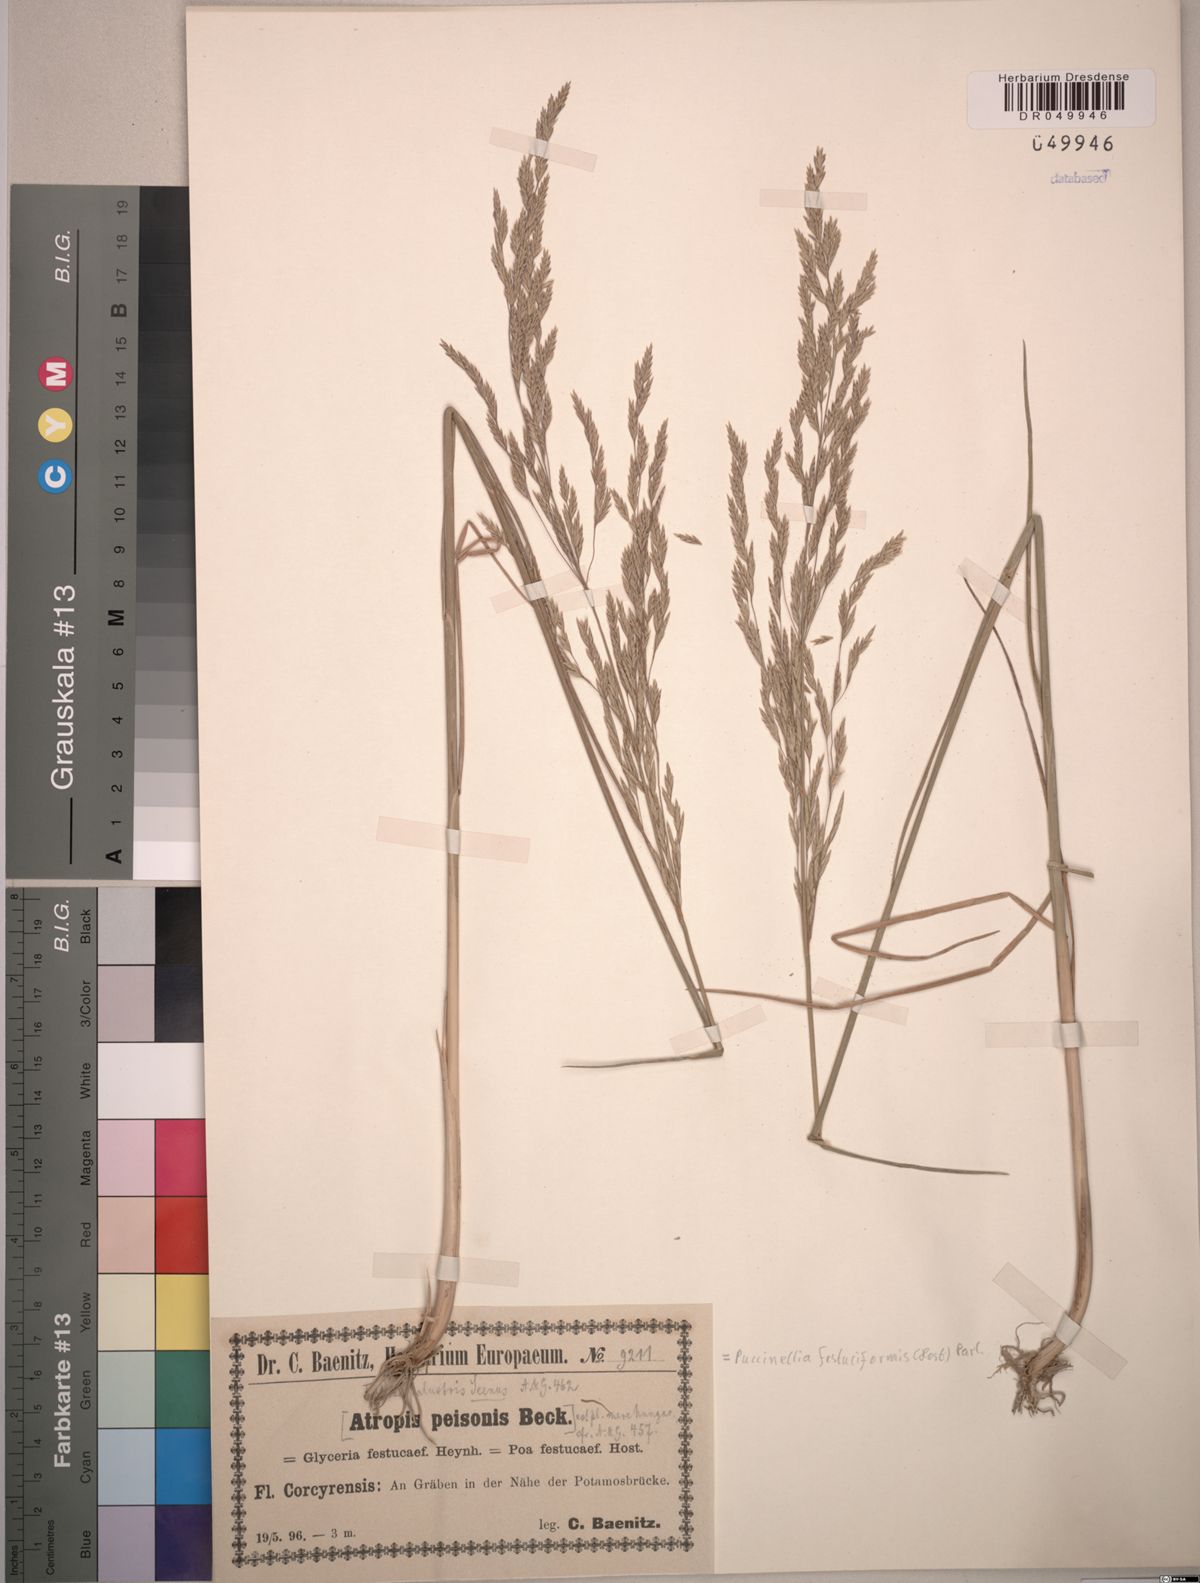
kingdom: Plantae
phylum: Tracheophyta
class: Liliopsida
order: Poales
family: Poaceae
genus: Puccinellia
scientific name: Puccinellia festuciformis
